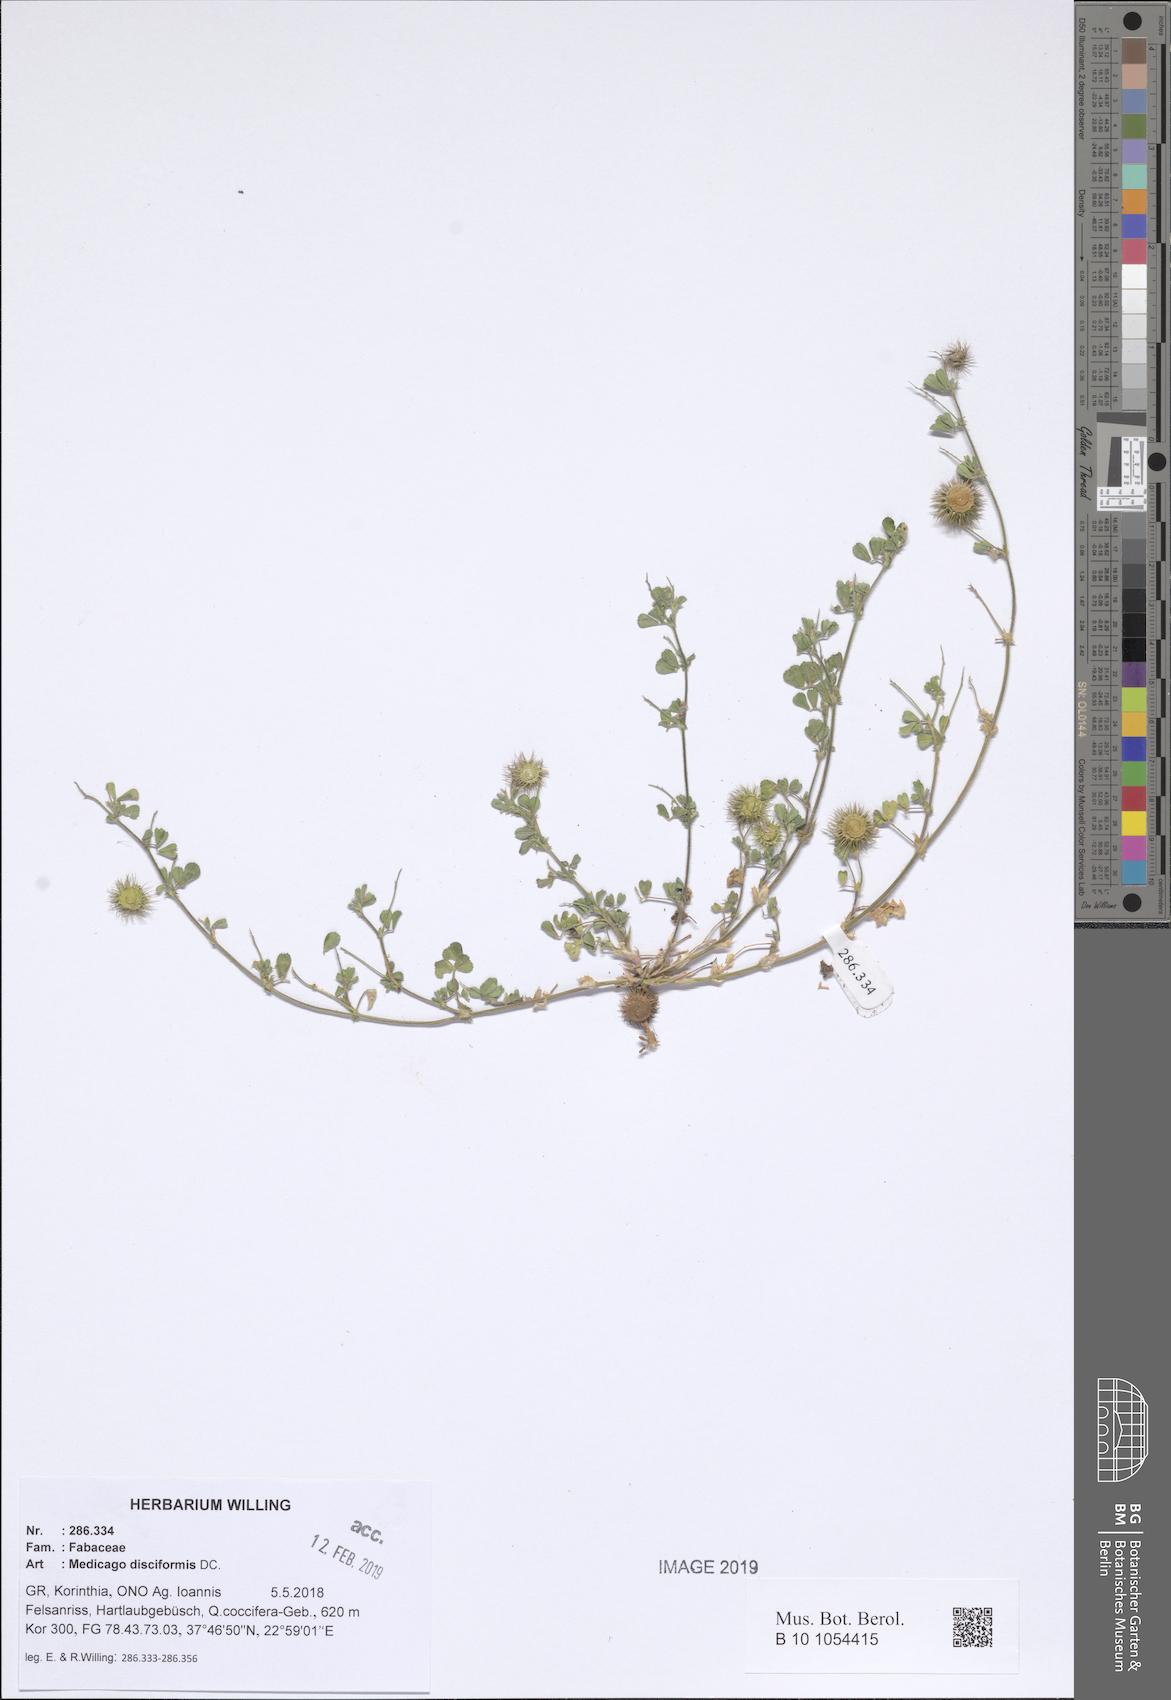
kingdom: Plantae
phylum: Tracheophyta
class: Magnoliopsida
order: Fabales
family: Fabaceae
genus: Medicago
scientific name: Medicago disciformis
